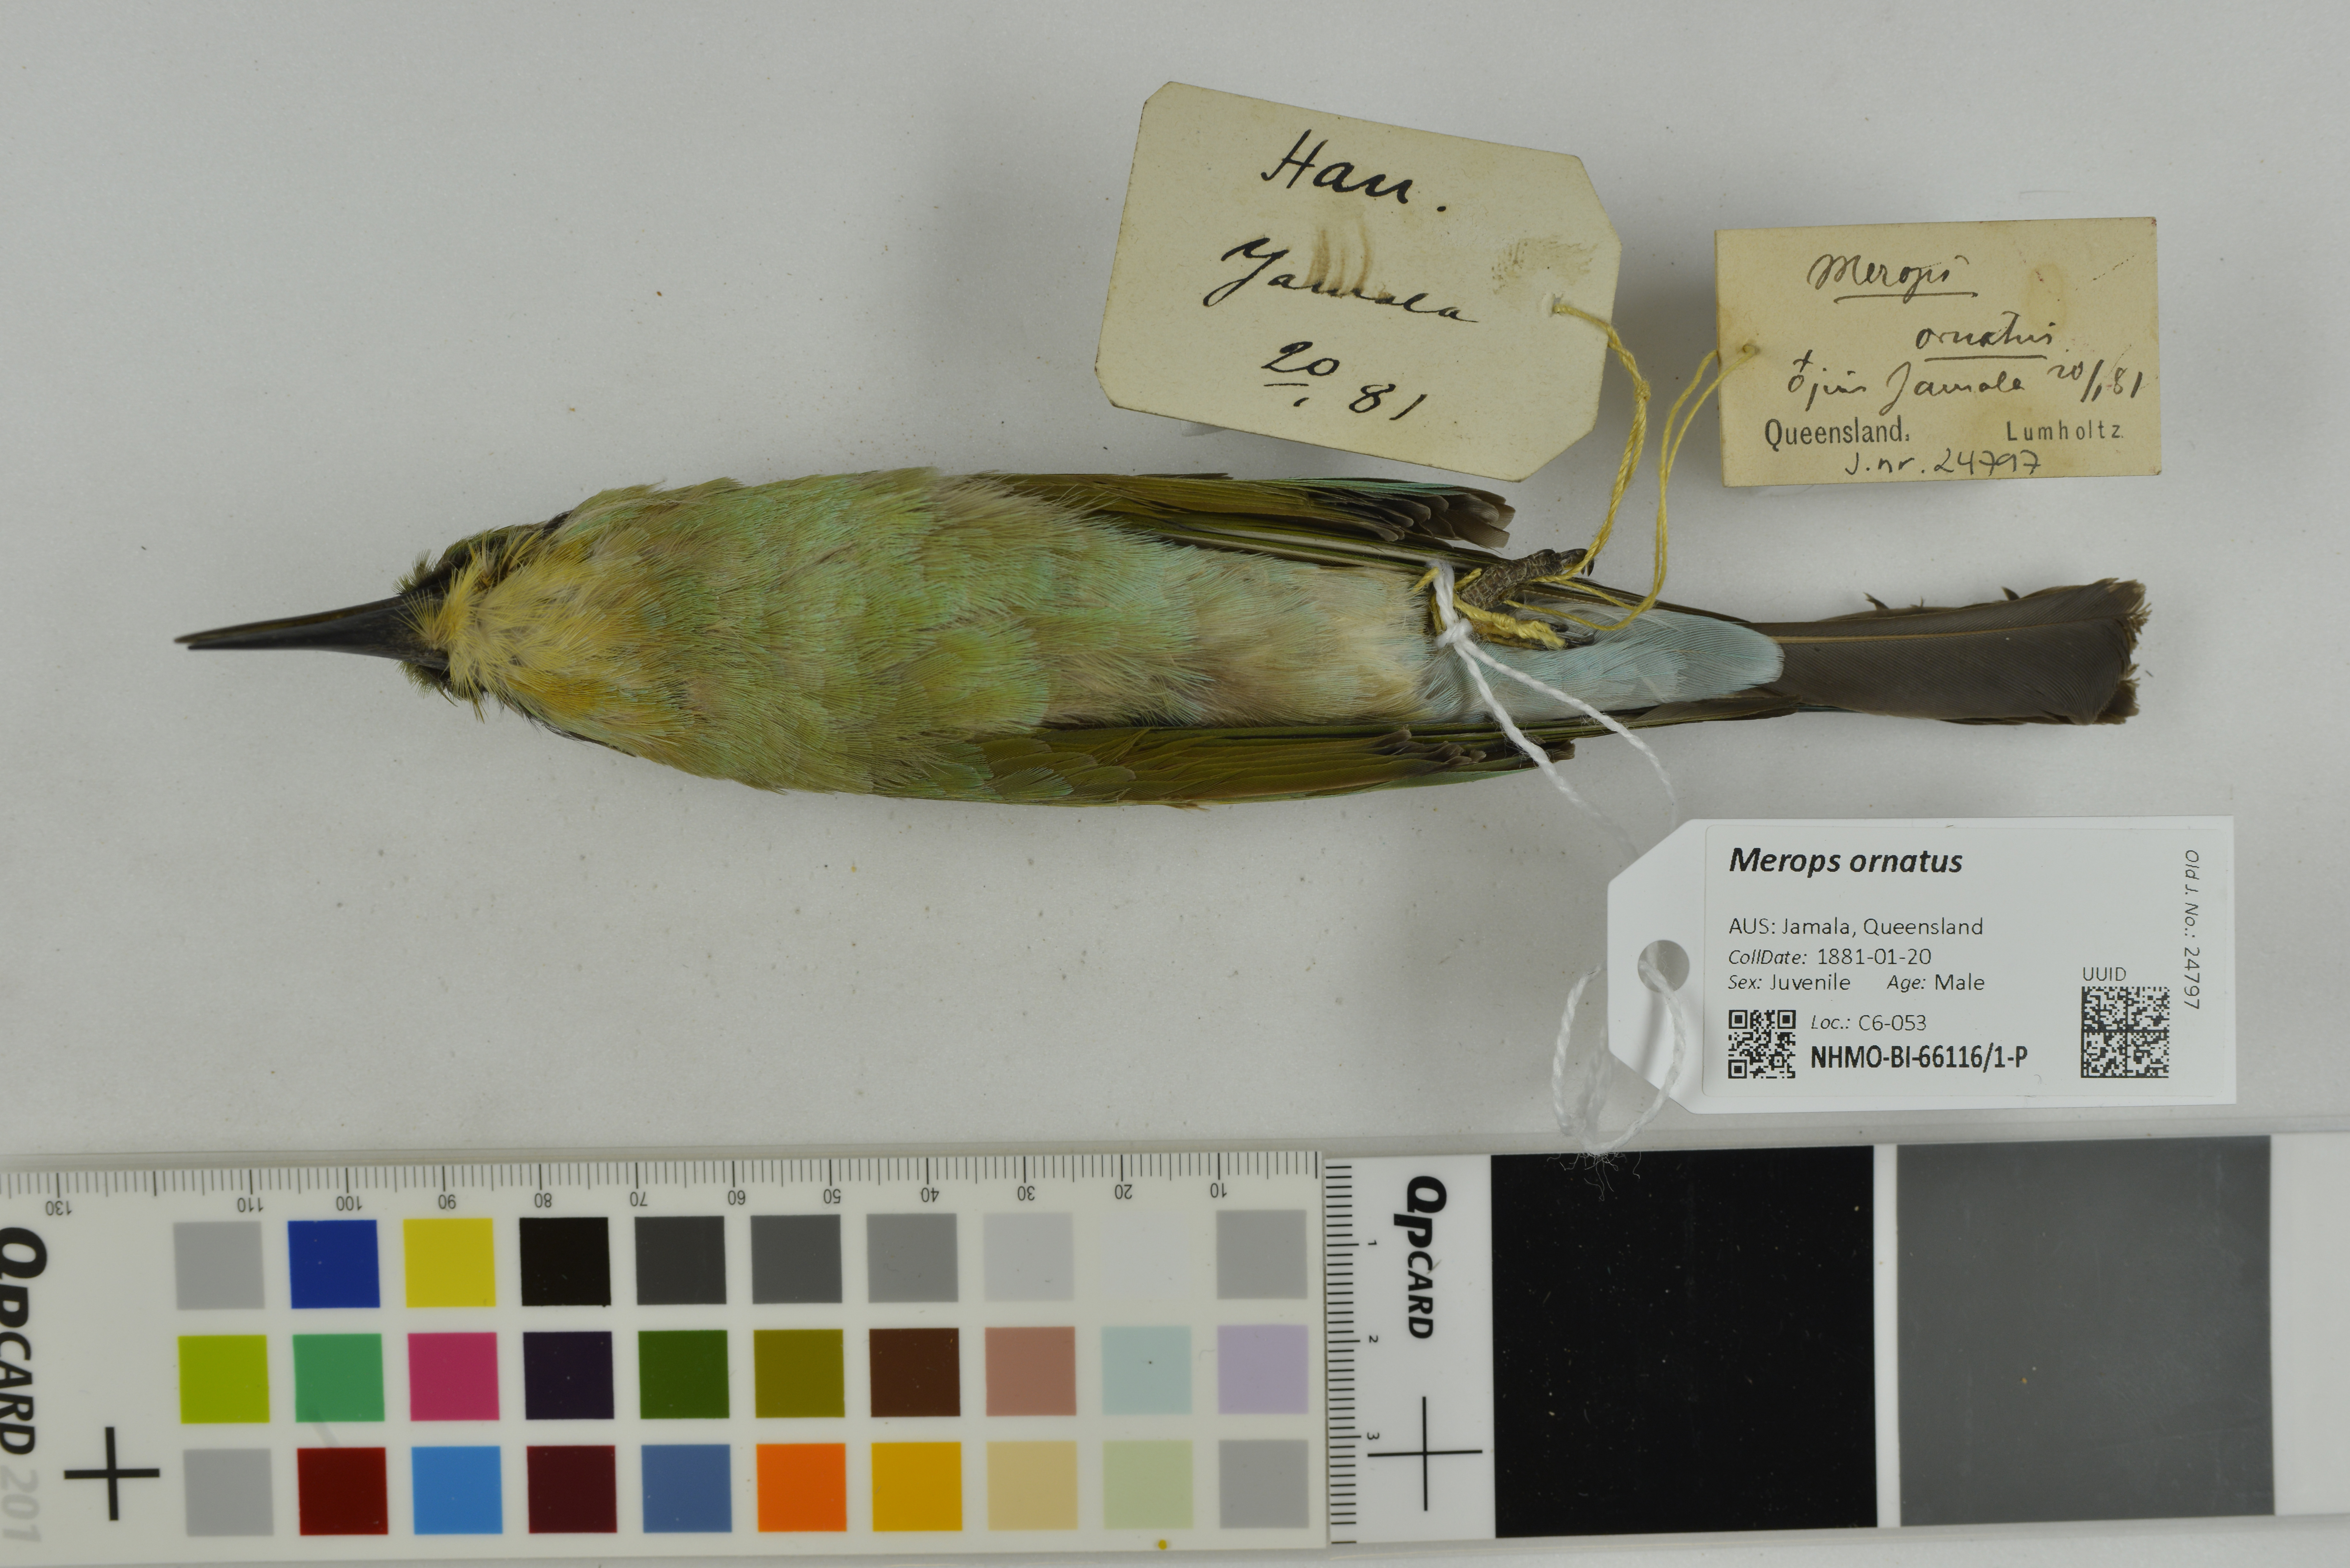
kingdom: Animalia
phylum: Chordata
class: Aves
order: Coraciiformes
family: Meropidae
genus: Merops
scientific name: Merops ornatus
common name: Rainbow bee-eater
